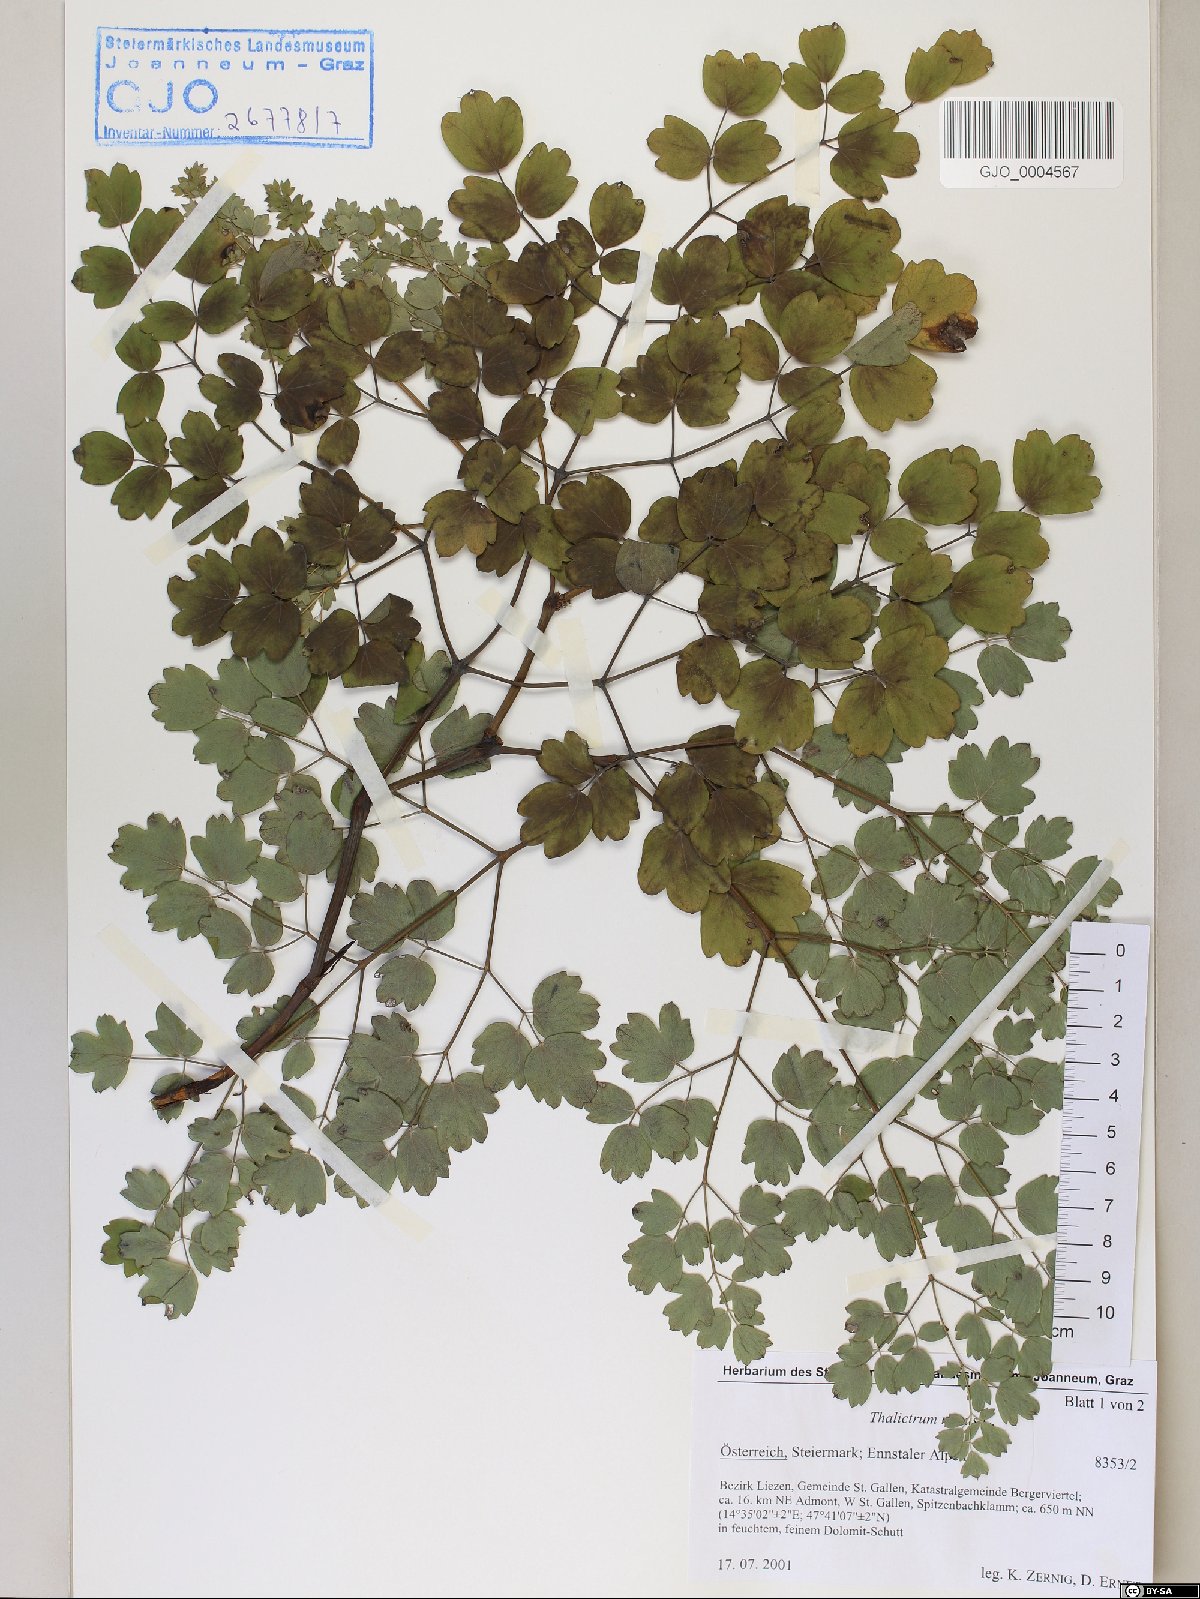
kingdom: Plantae
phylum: Tracheophyta
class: Magnoliopsida
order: Ranunculales
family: Ranunculaceae
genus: Thalictrum
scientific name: Thalictrum minus
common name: Lesser meadow-rue
